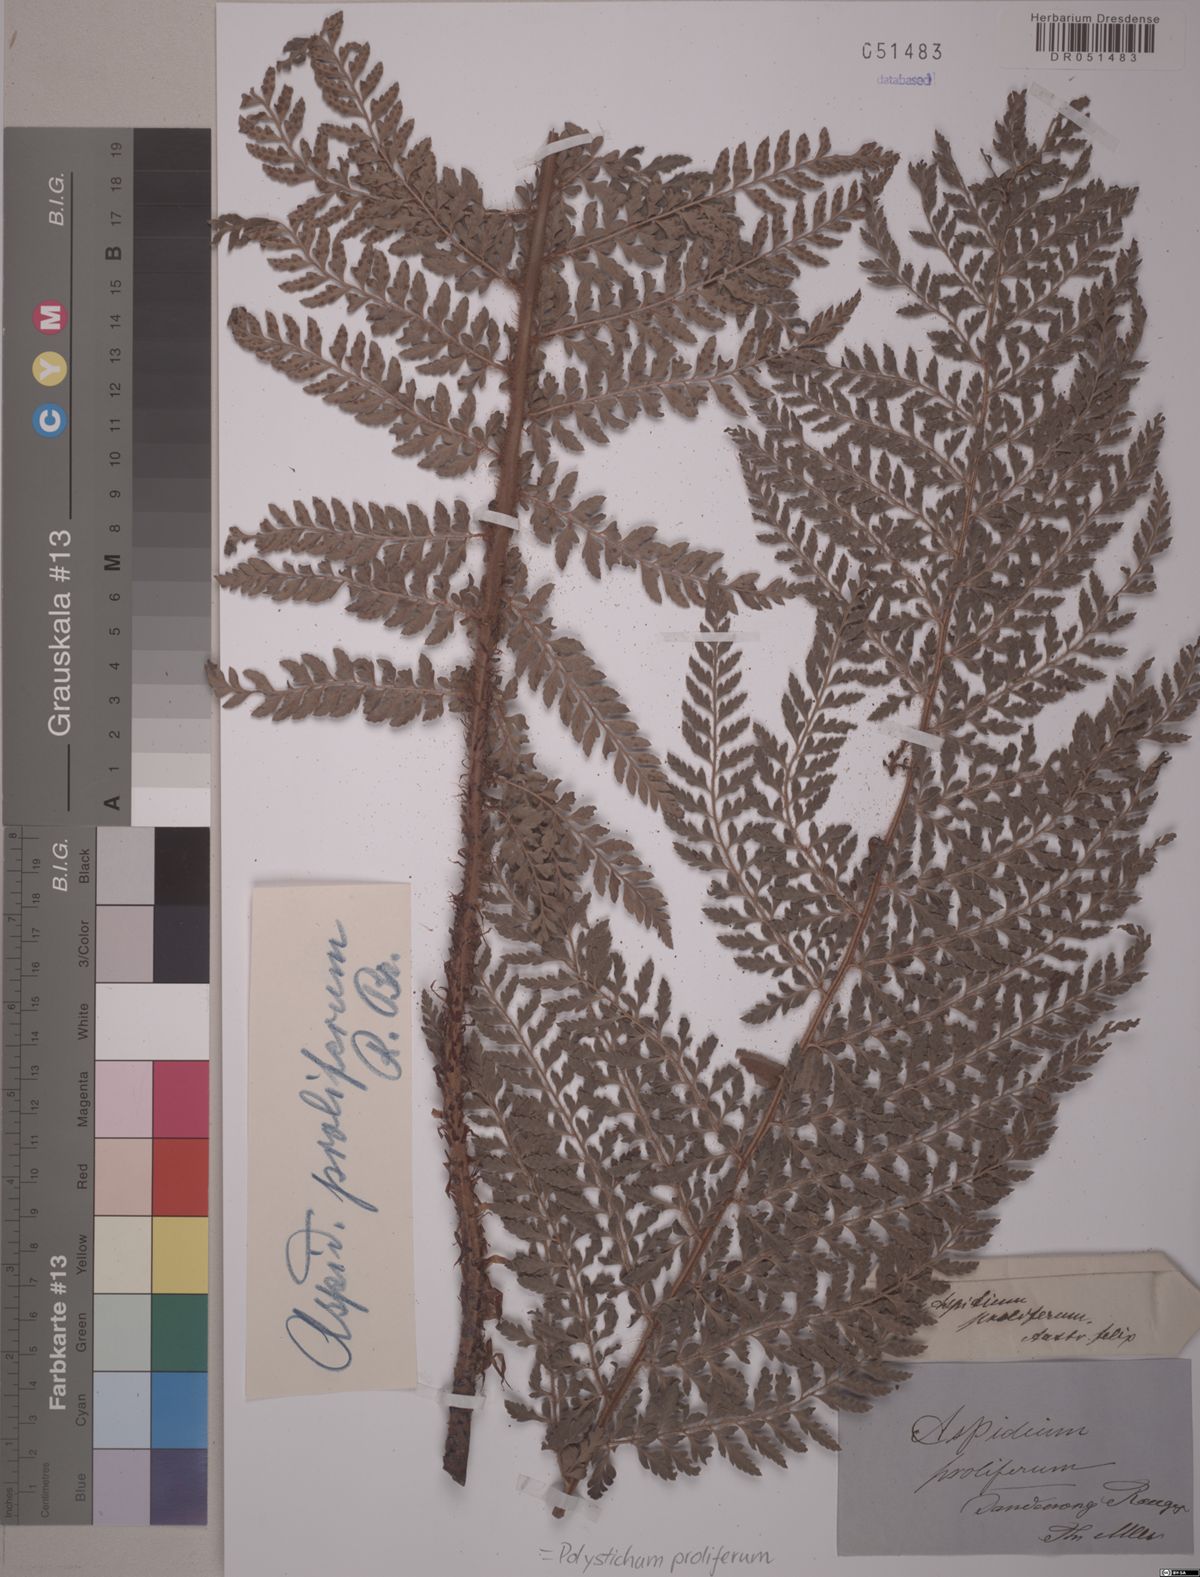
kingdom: Plantae
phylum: Tracheophyta
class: Polypodiopsida
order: Polypodiales
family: Dryopteridaceae
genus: Polystichum
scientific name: Polystichum proliferum
